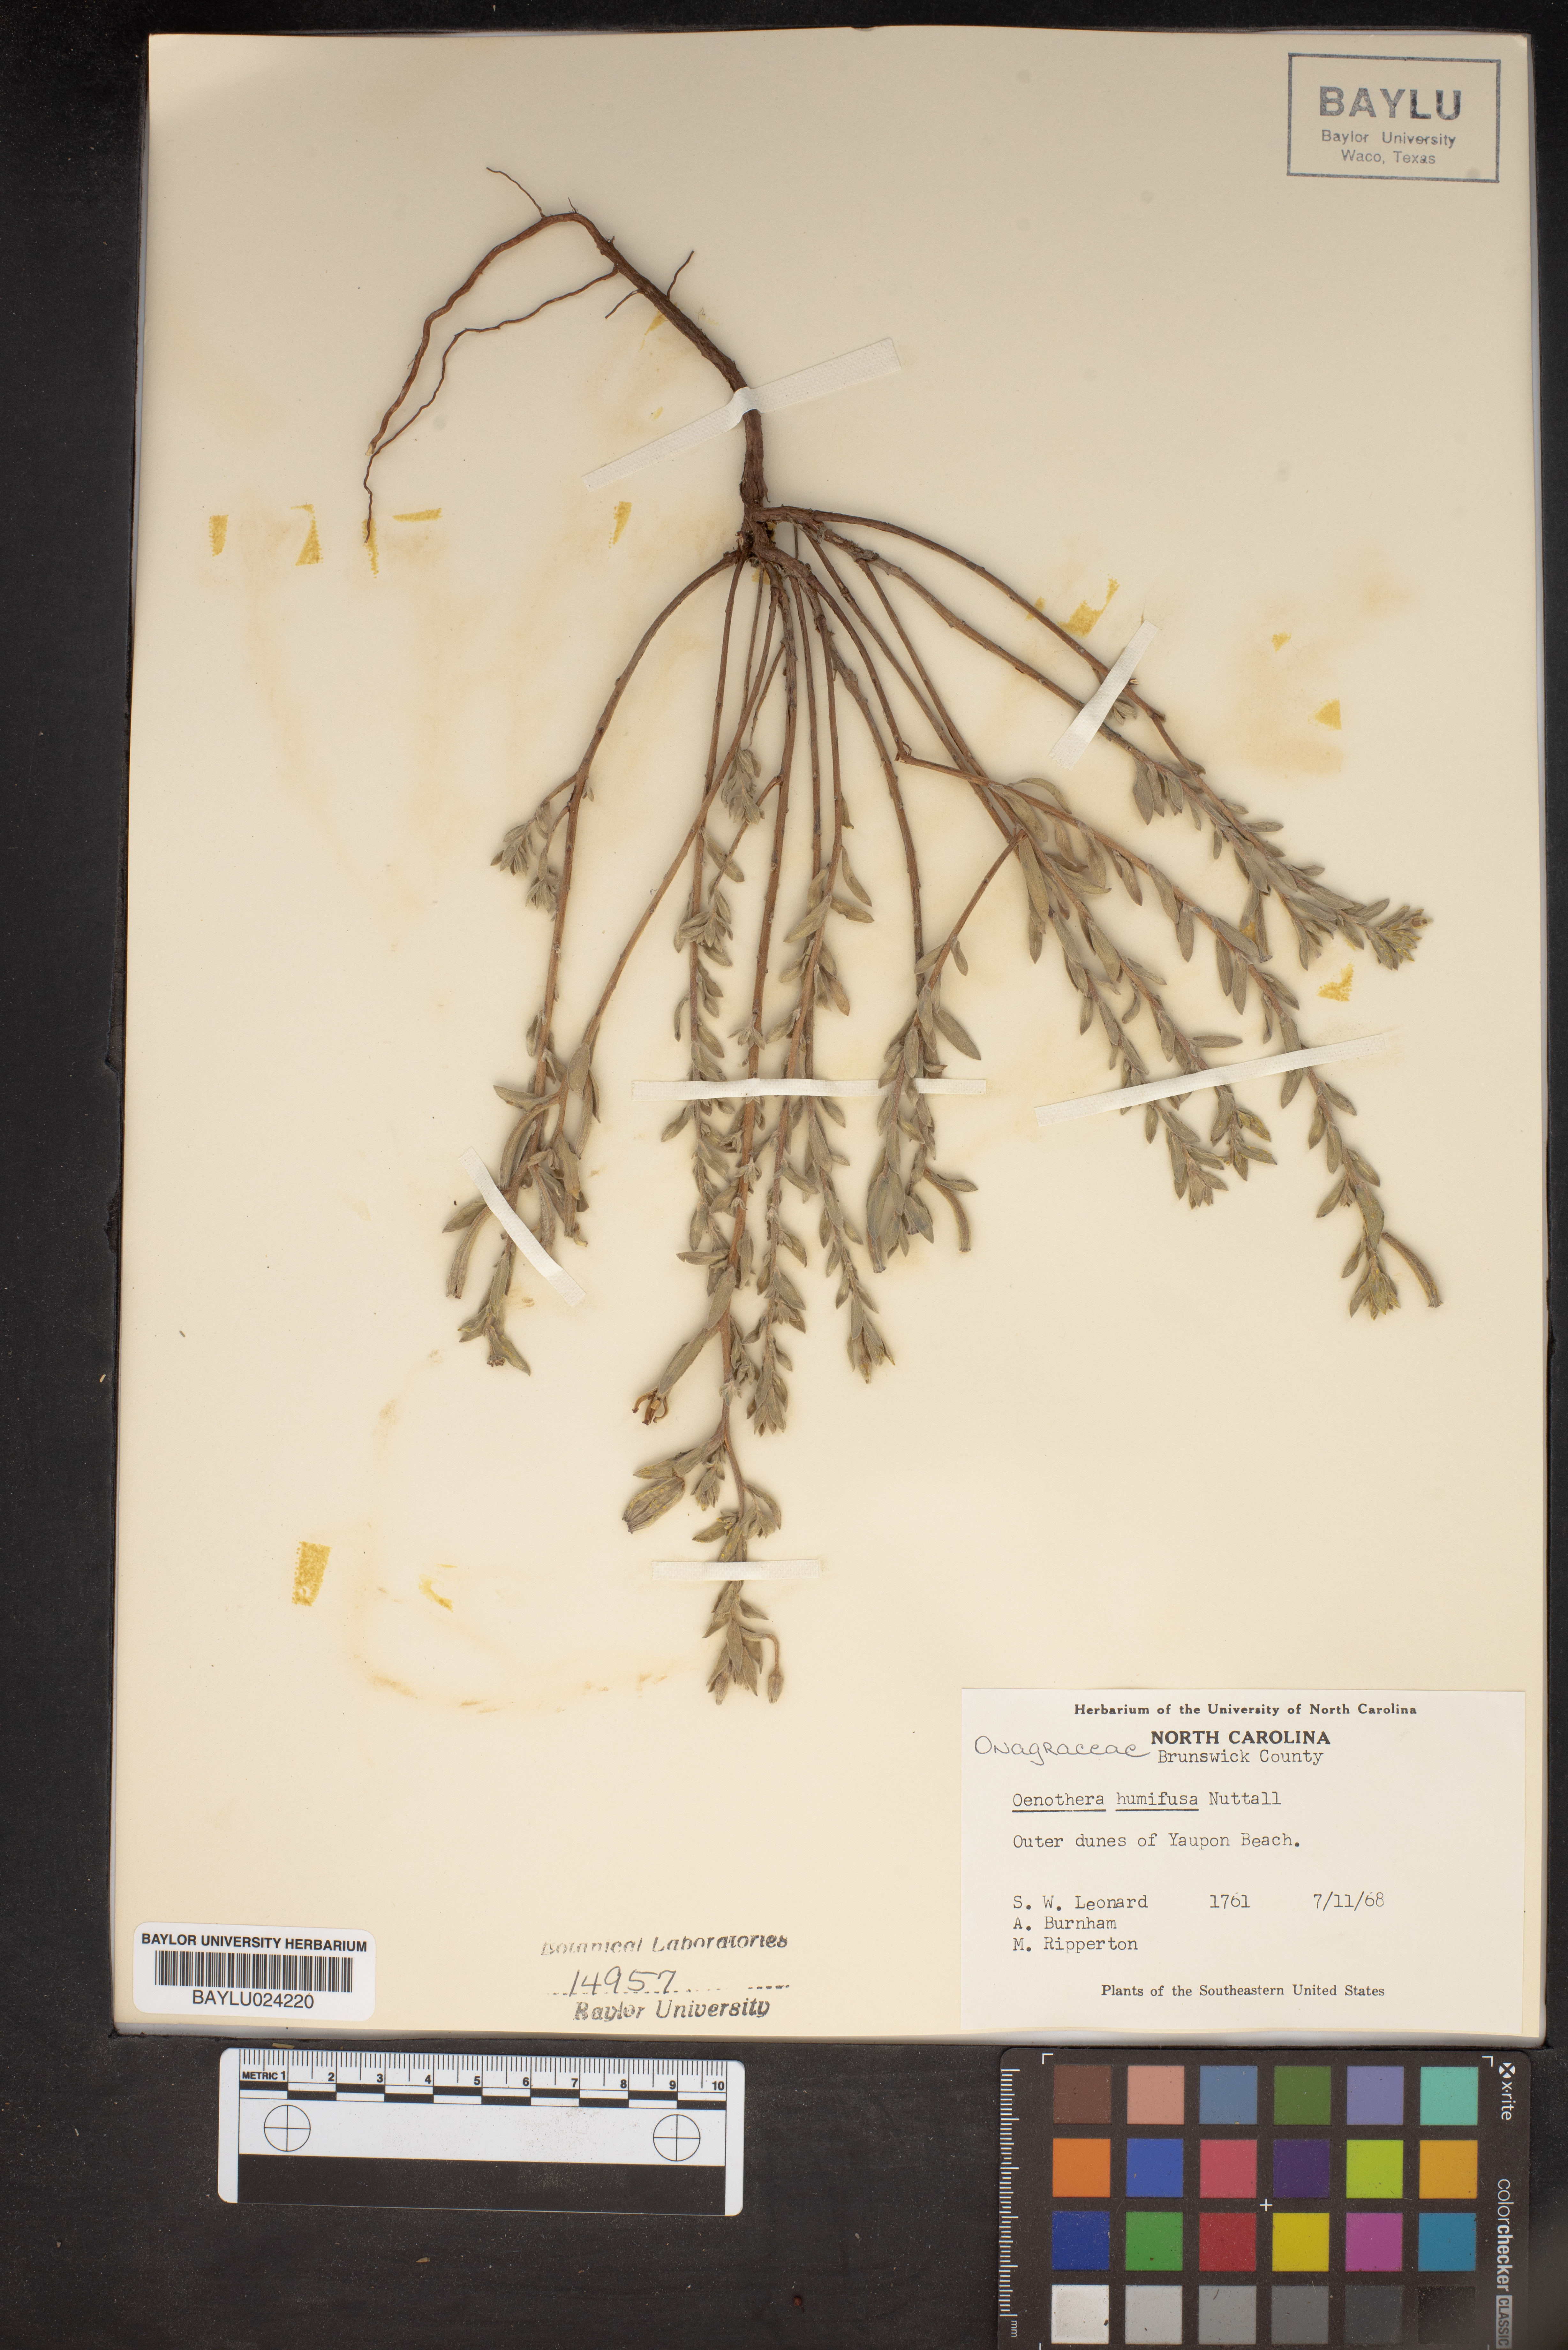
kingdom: Plantae
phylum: Tracheophyta
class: Magnoliopsida
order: Myrtales
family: Onagraceae
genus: Oenothera
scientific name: Oenothera humifusa
